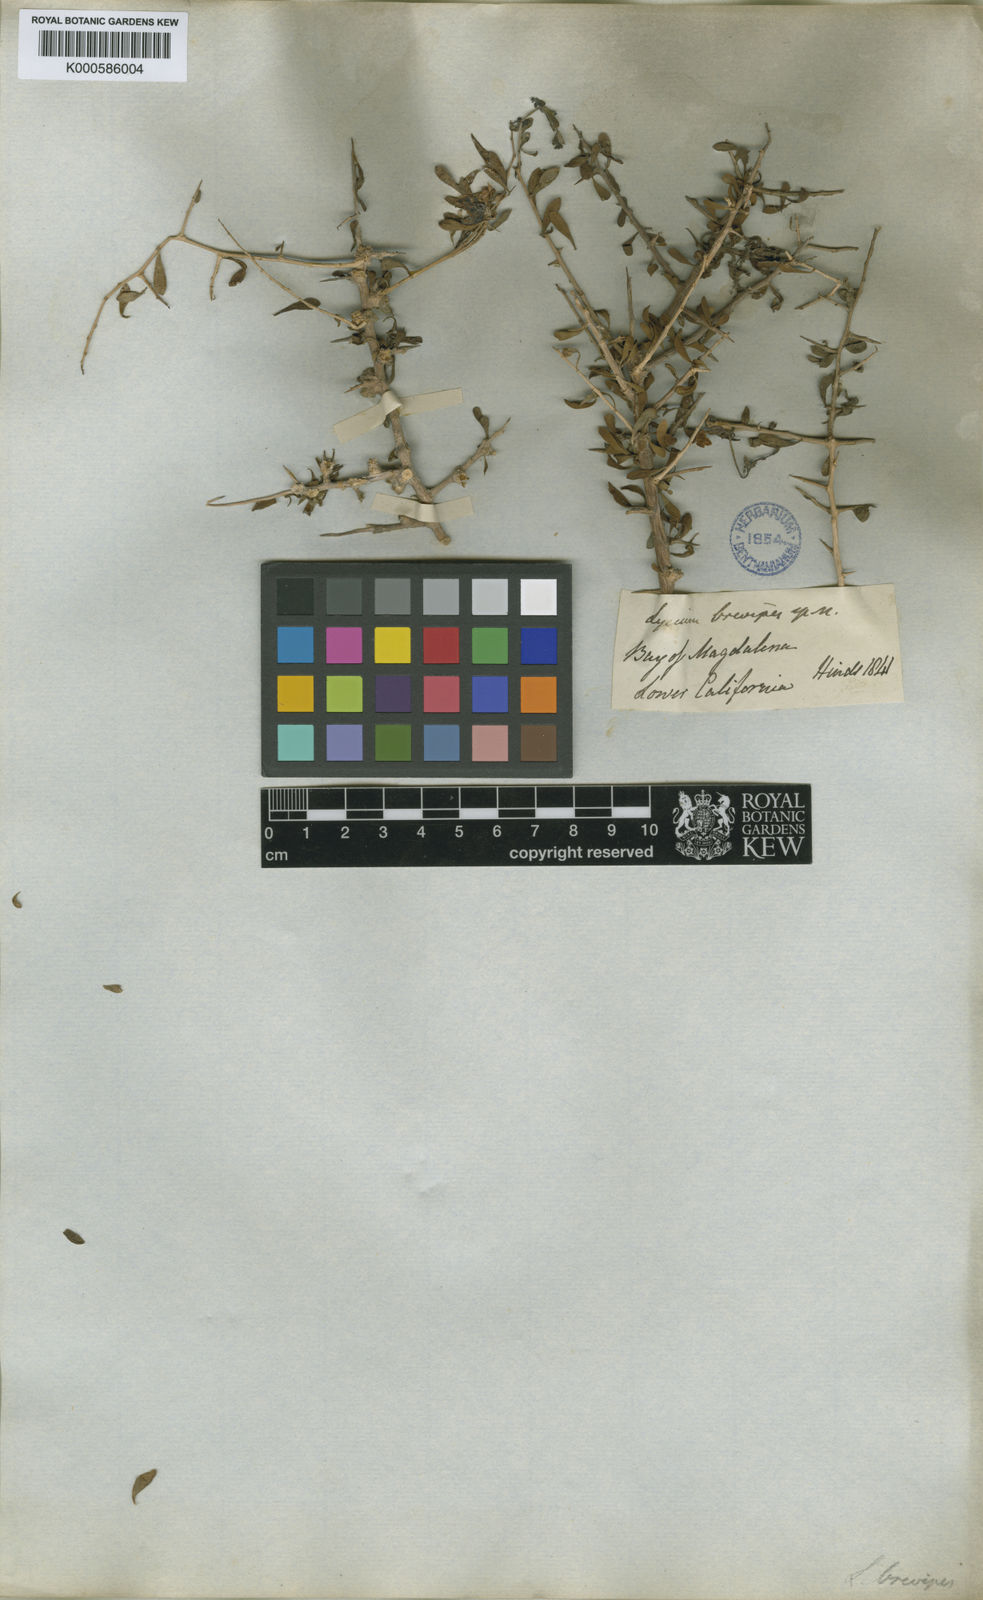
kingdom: Plantae
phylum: Tracheophyta
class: Magnoliopsida
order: Solanales
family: Solanaceae
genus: Lycium
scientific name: Lycium brevipes
